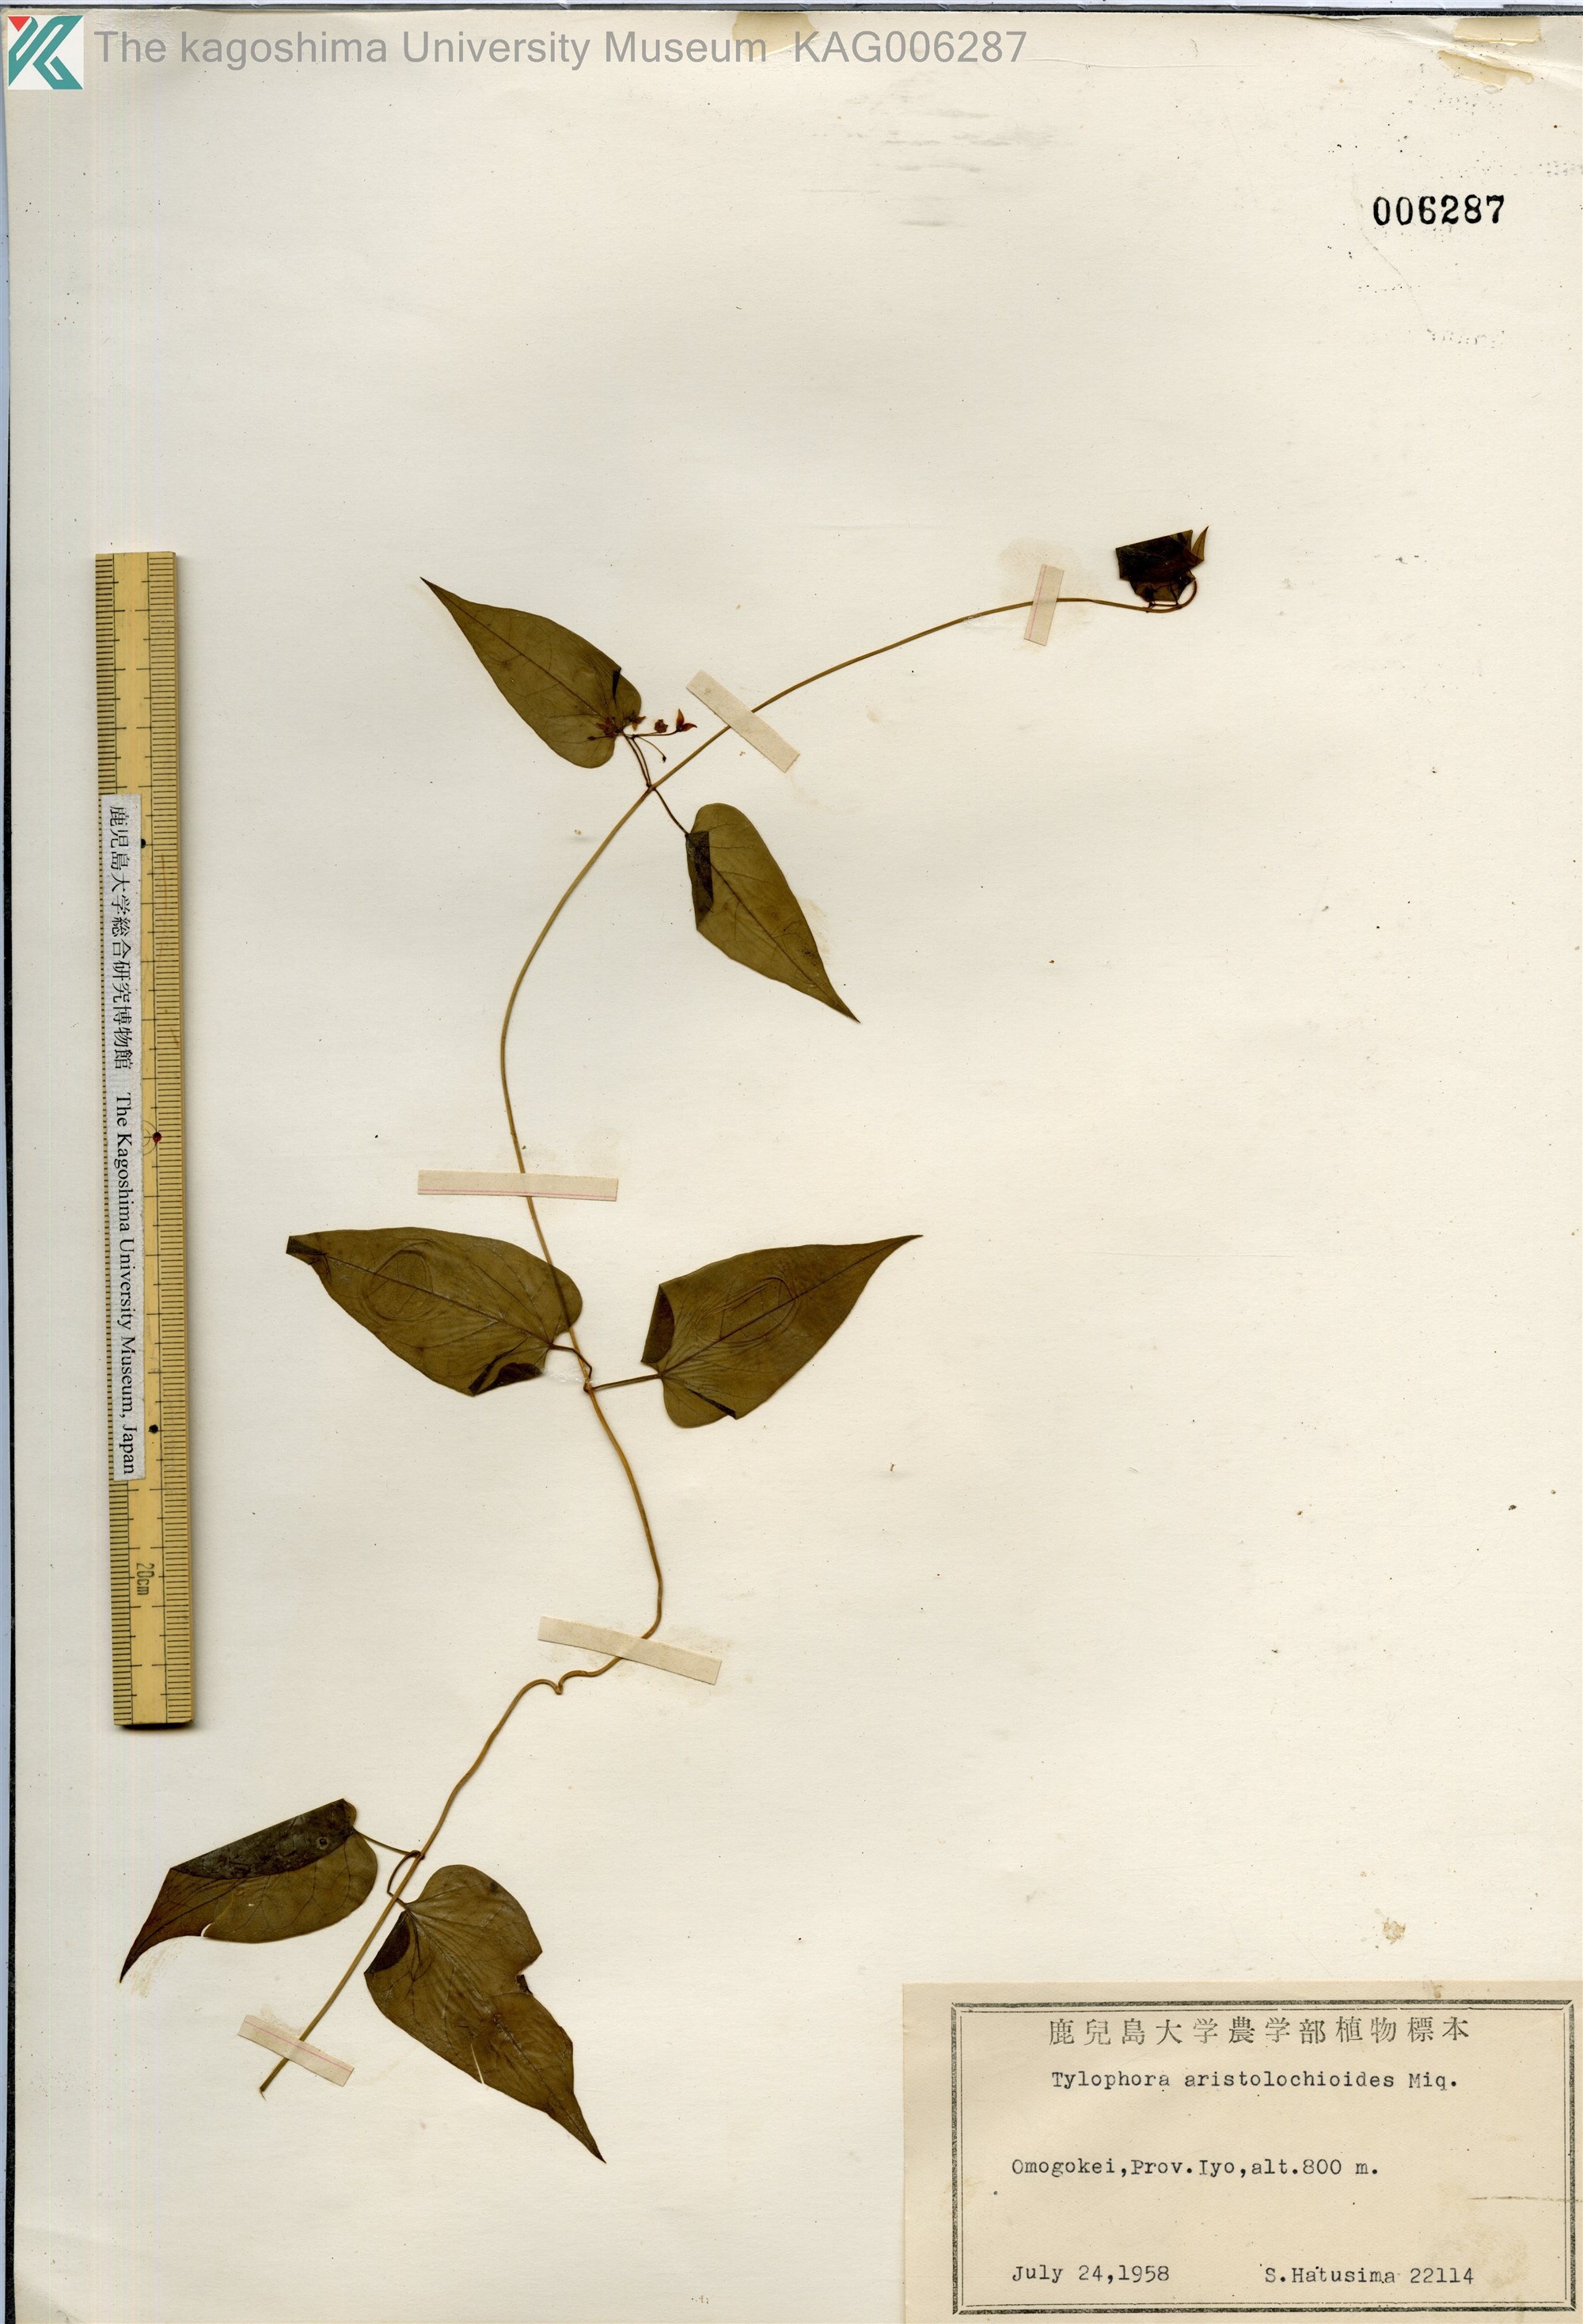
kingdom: Plantae
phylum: Tracheophyta
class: Magnoliopsida
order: Gentianales
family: Apocynaceae
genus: Vincetoxicum
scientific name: Vincetoxicum aristolochioides
